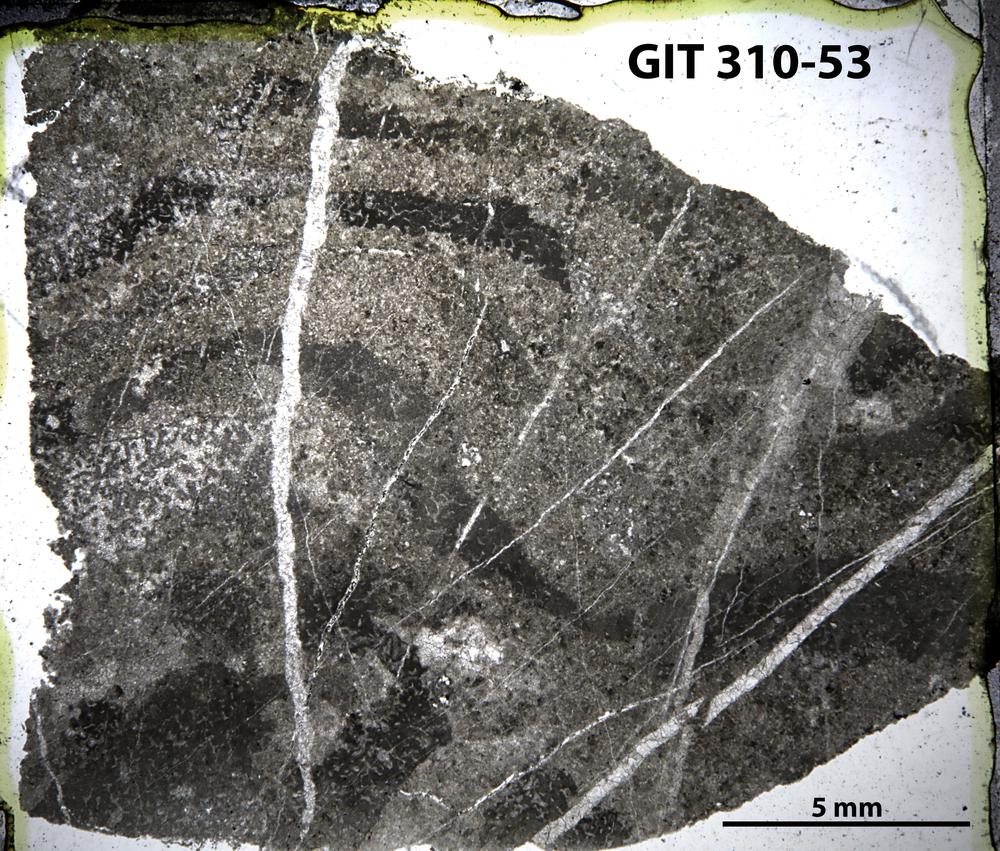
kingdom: Animalia
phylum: Porifera
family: Ecclimadictyidae
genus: Ecclimadictyon
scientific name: Ecclimadictyon
